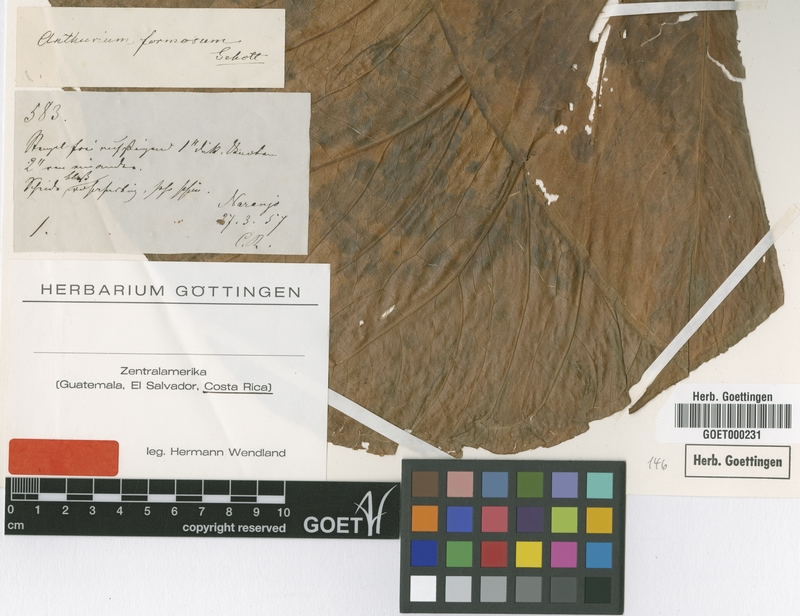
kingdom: Plantae
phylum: Tracheophyta
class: Liliopsida
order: Alismatales
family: Araceae
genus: Anthurium
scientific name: Anthurium formosum
